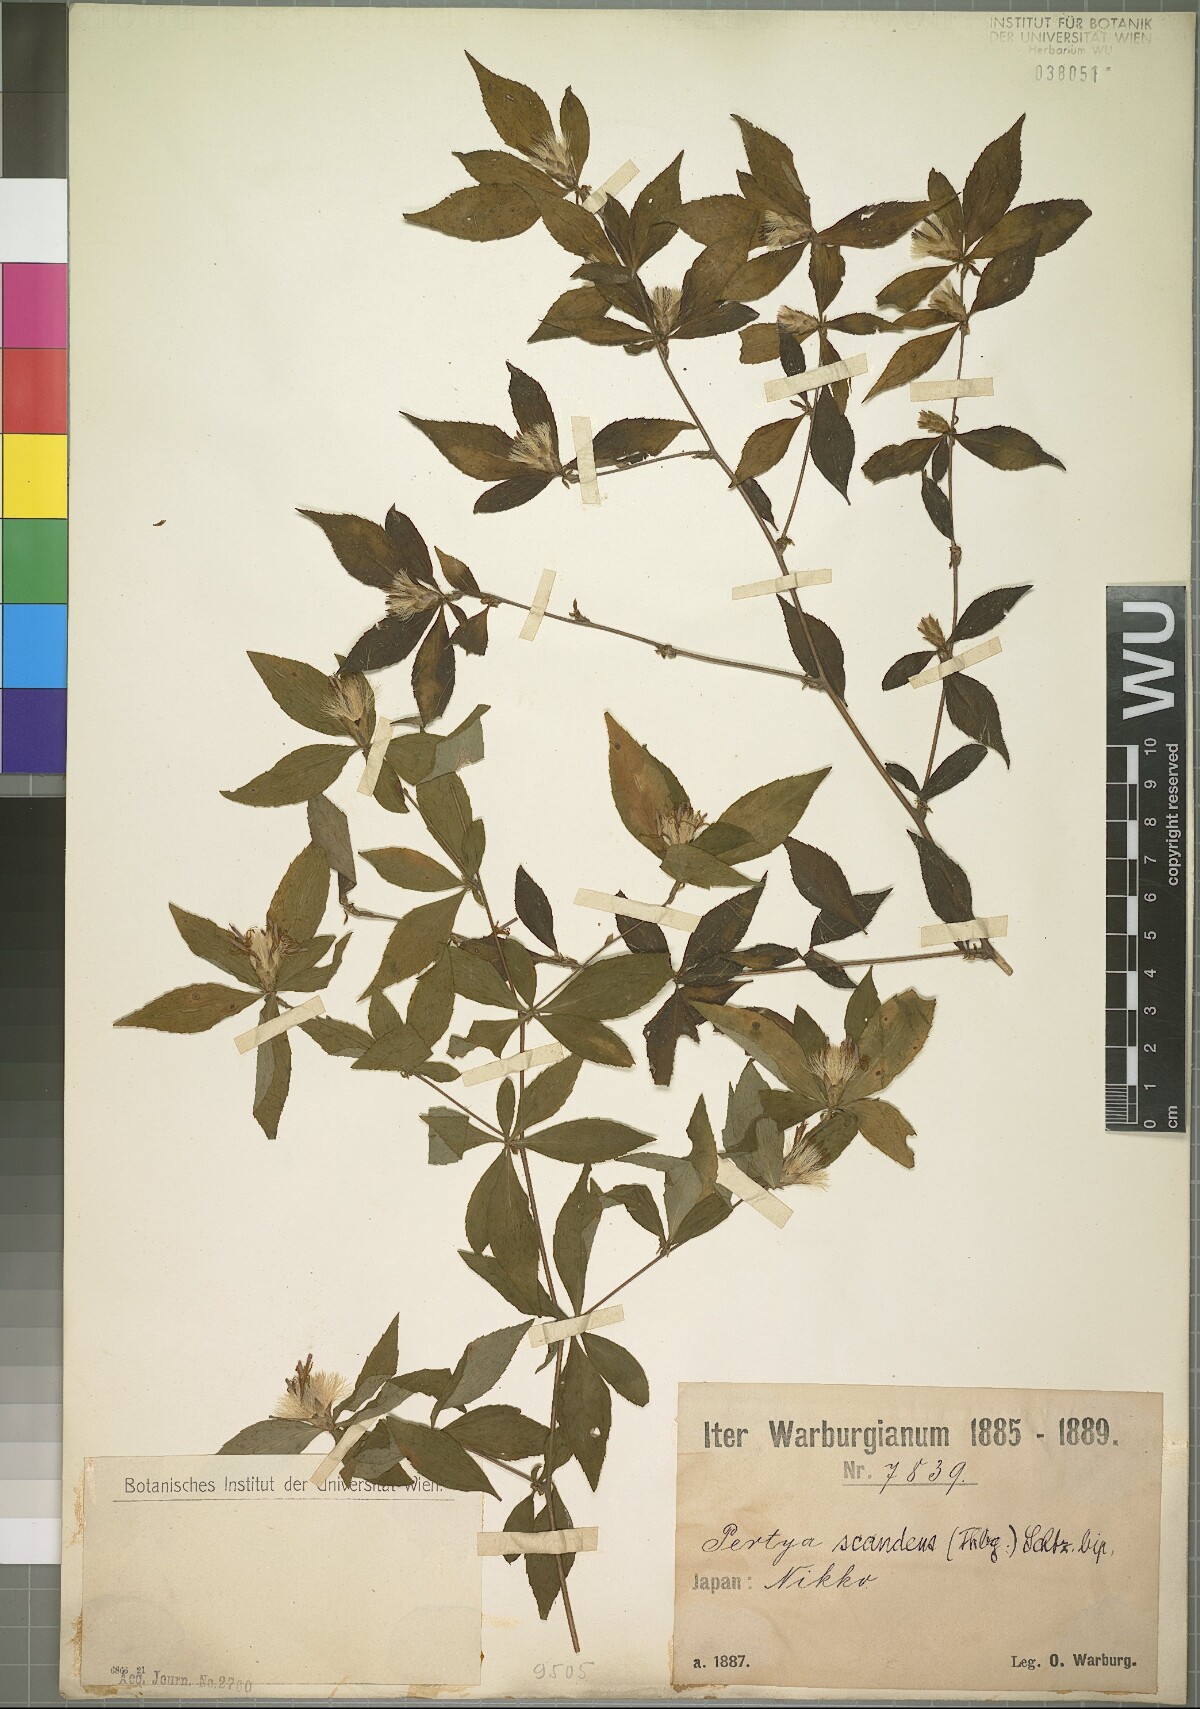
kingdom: Plantae
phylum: Tracheophyta
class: Magnoliopsida
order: Asterales
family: Asteraceae
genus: Pertya
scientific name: Pertya glabrescens
